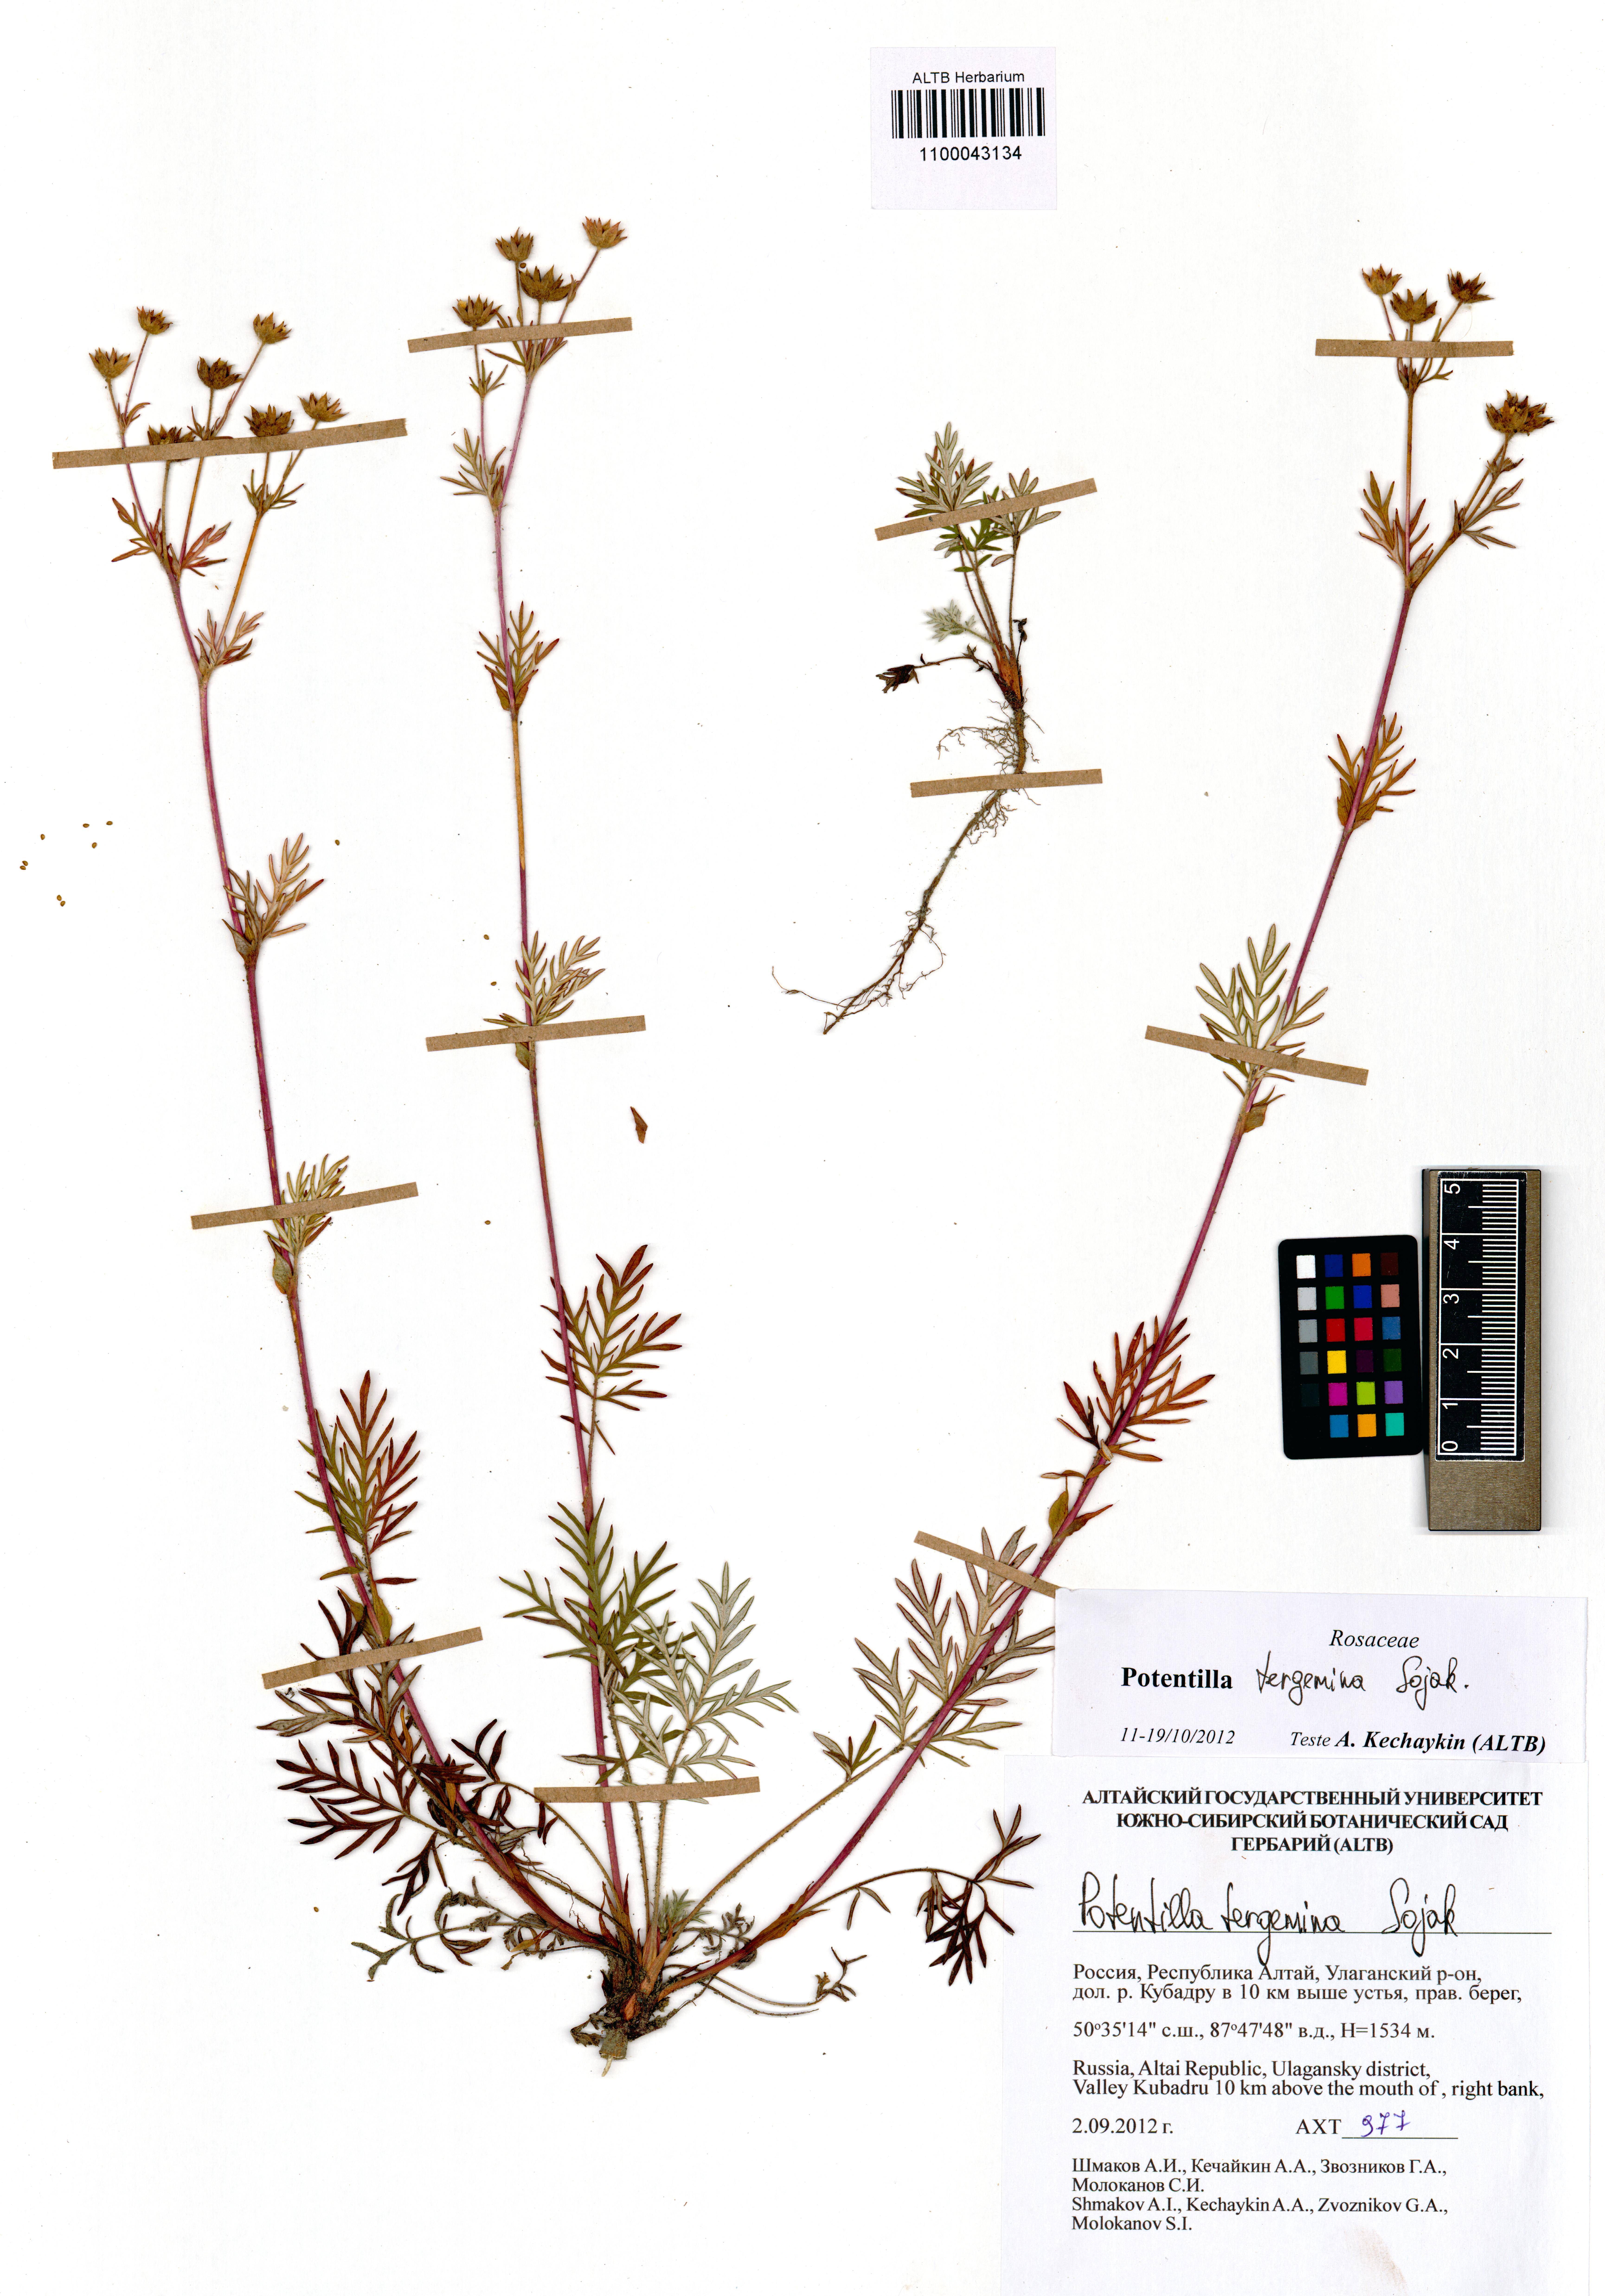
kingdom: Plantae
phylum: Tracheophyta
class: Magnoliopsida
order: Rosales
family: Rosaceae
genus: Potentilla
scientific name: Potentilla tergemina
